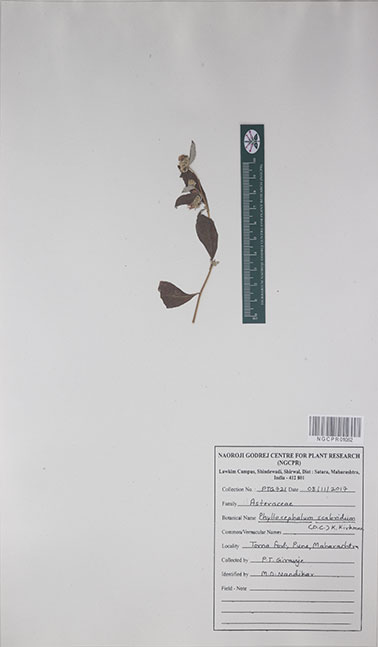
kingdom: Plantae
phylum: Tracheophyta
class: Magnoliopsida
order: Asterales
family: Asteraceae
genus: Phyllocephalum
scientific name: Phyllocephalum scabridum
